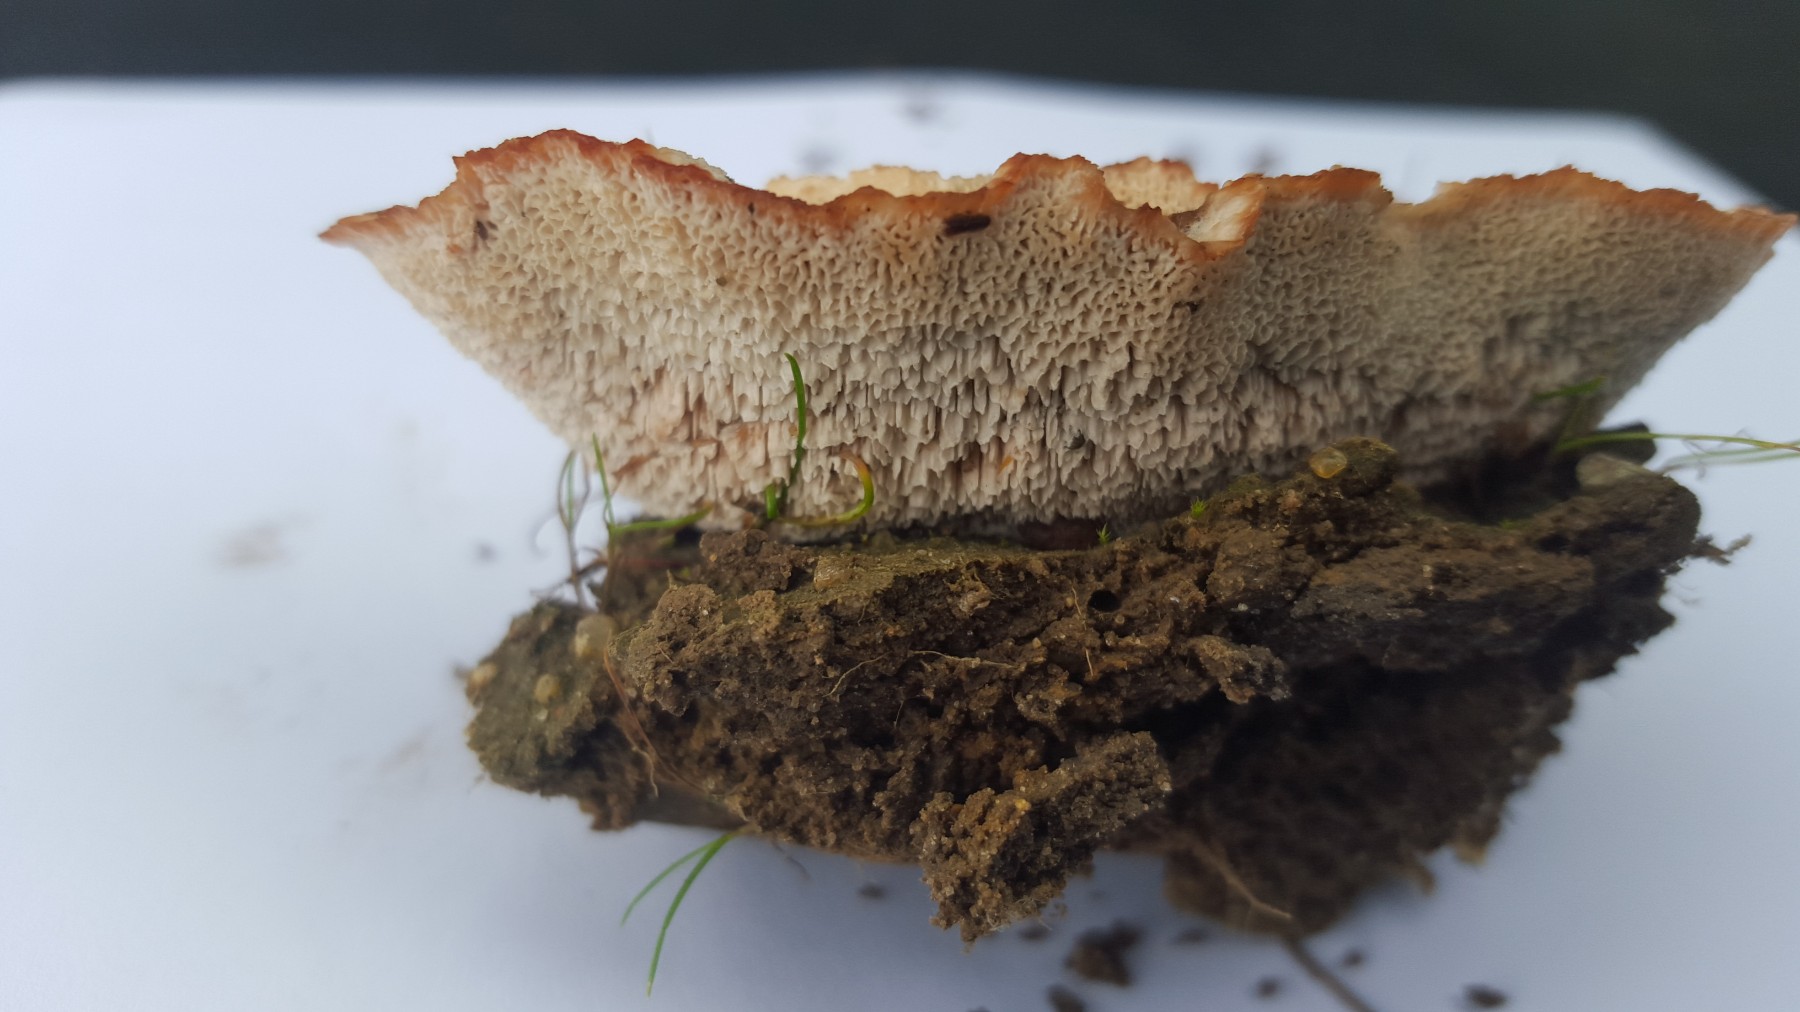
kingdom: Fungi
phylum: Basidiomycota
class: Agaricomycetes
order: Polyporales
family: Podoscyphaceae
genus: Abortiporus
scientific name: Abortiporus biennis
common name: rødmende pjalteporesvamp
